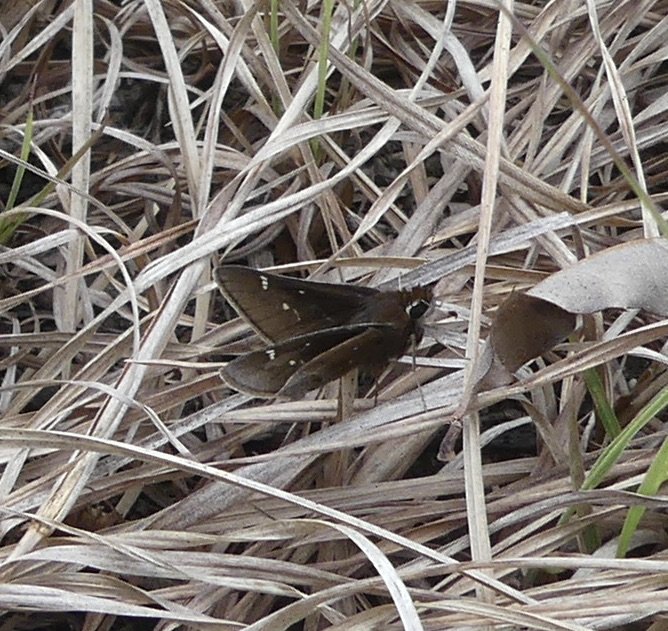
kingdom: Animalia
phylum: Arthropoda
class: Insecta
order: Lepidoptera
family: Hesperiidae
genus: Atrytonopsis
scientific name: Atrytonopsis hianna
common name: Dusted Skipper
